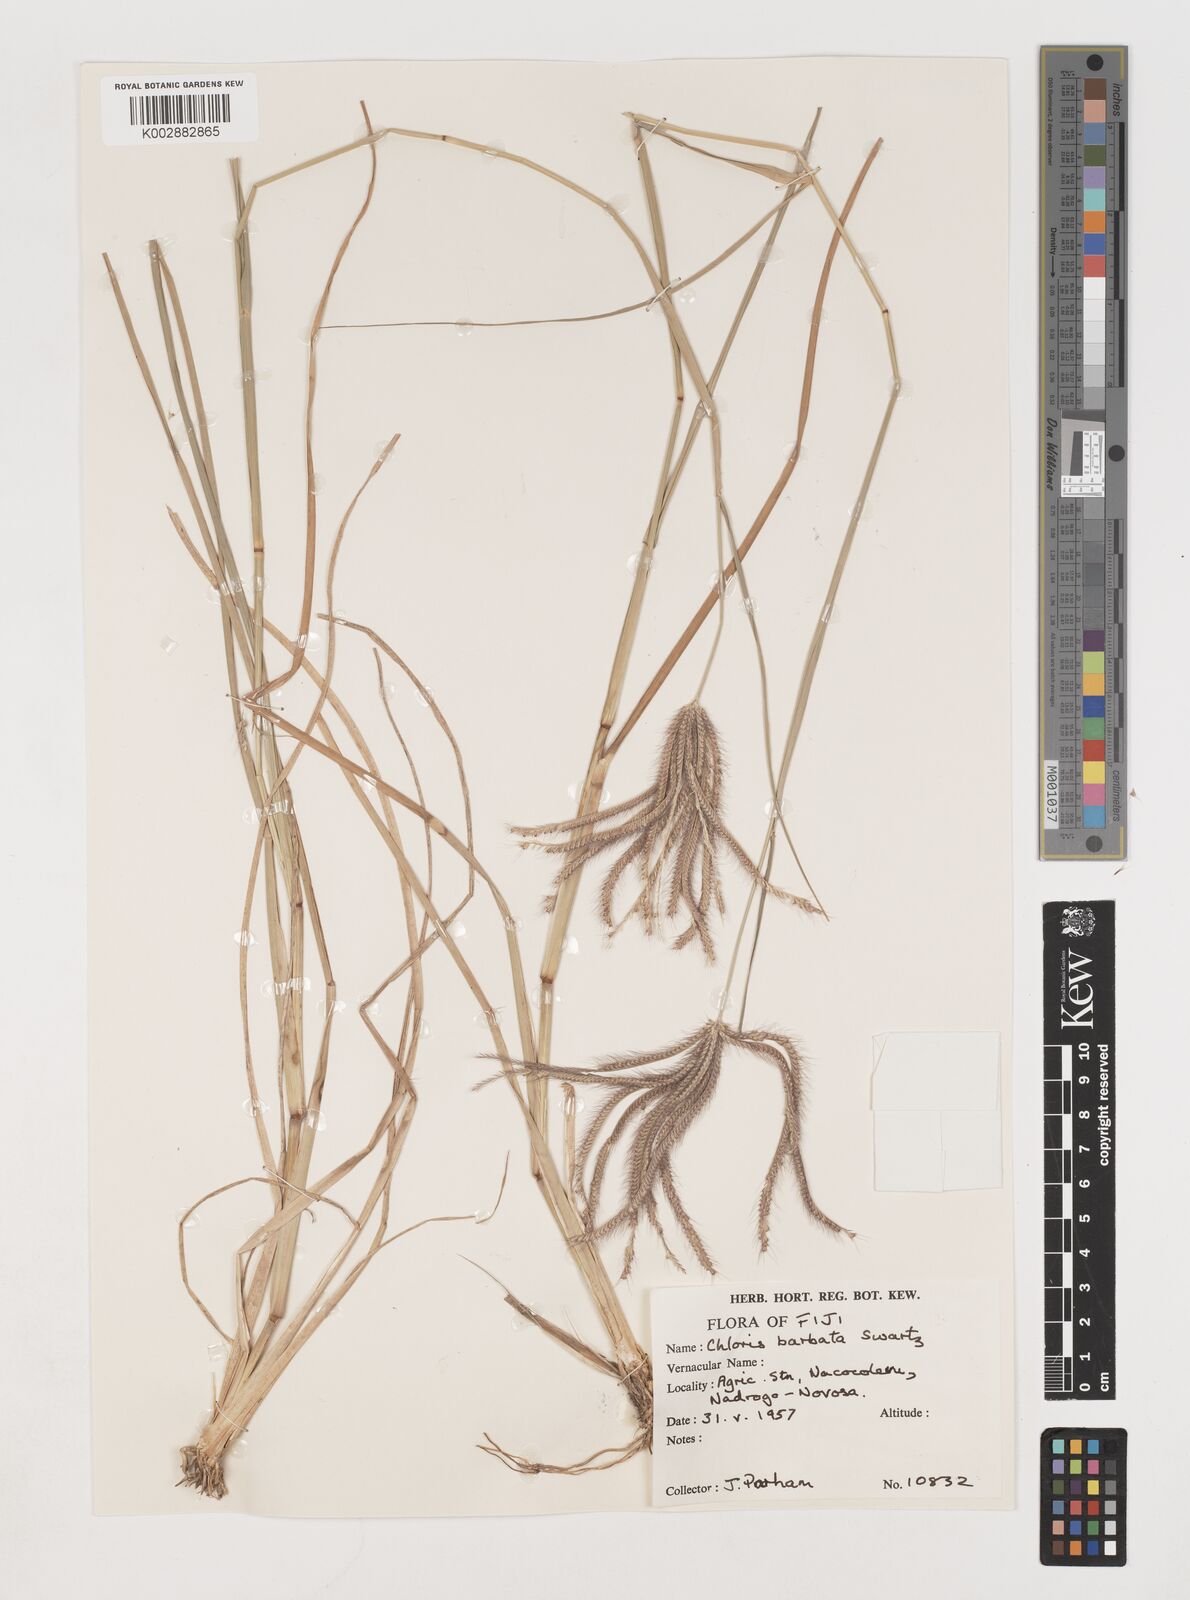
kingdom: Plantae
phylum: Tracheophyta
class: Liliopsida
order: Poales
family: Poaceae
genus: Chloris
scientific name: Chloris barbata
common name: Swollen fingergrass
